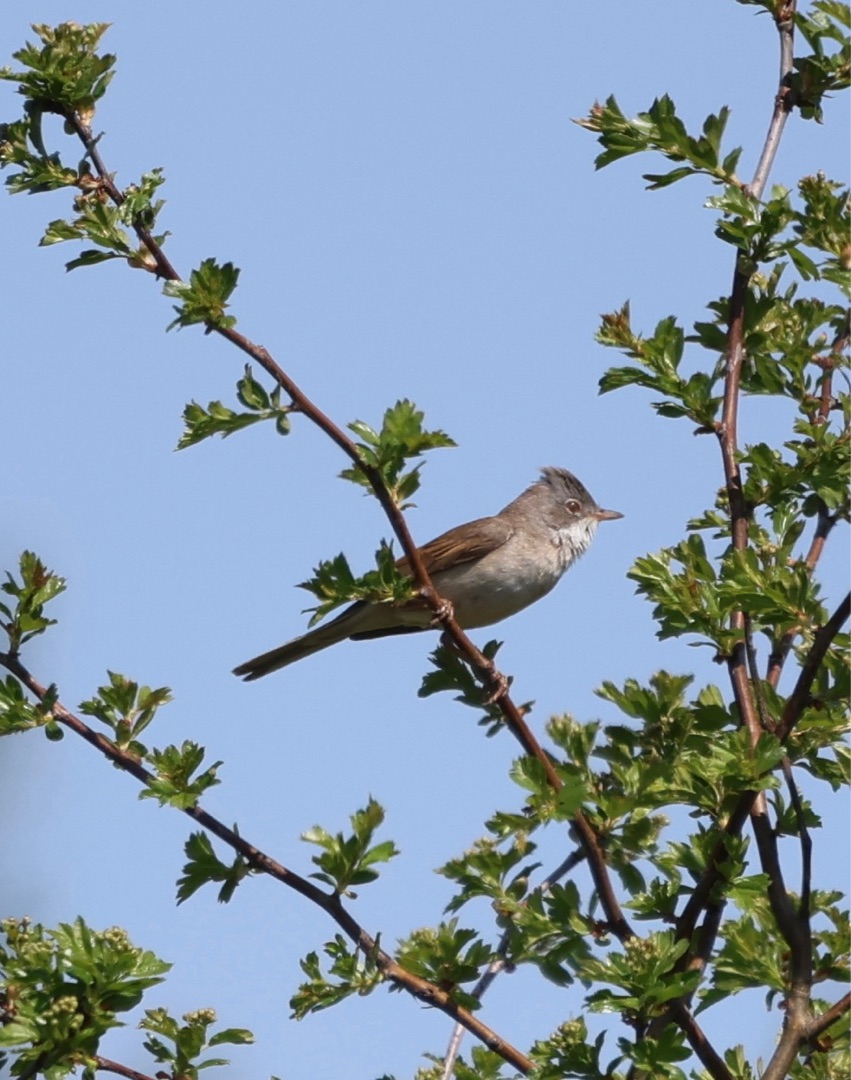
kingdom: Animalia
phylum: Chordata
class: Aves
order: Passeriformes
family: Sylviidae
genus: Sylvia
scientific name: Sylvia communis
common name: Tornsanger
